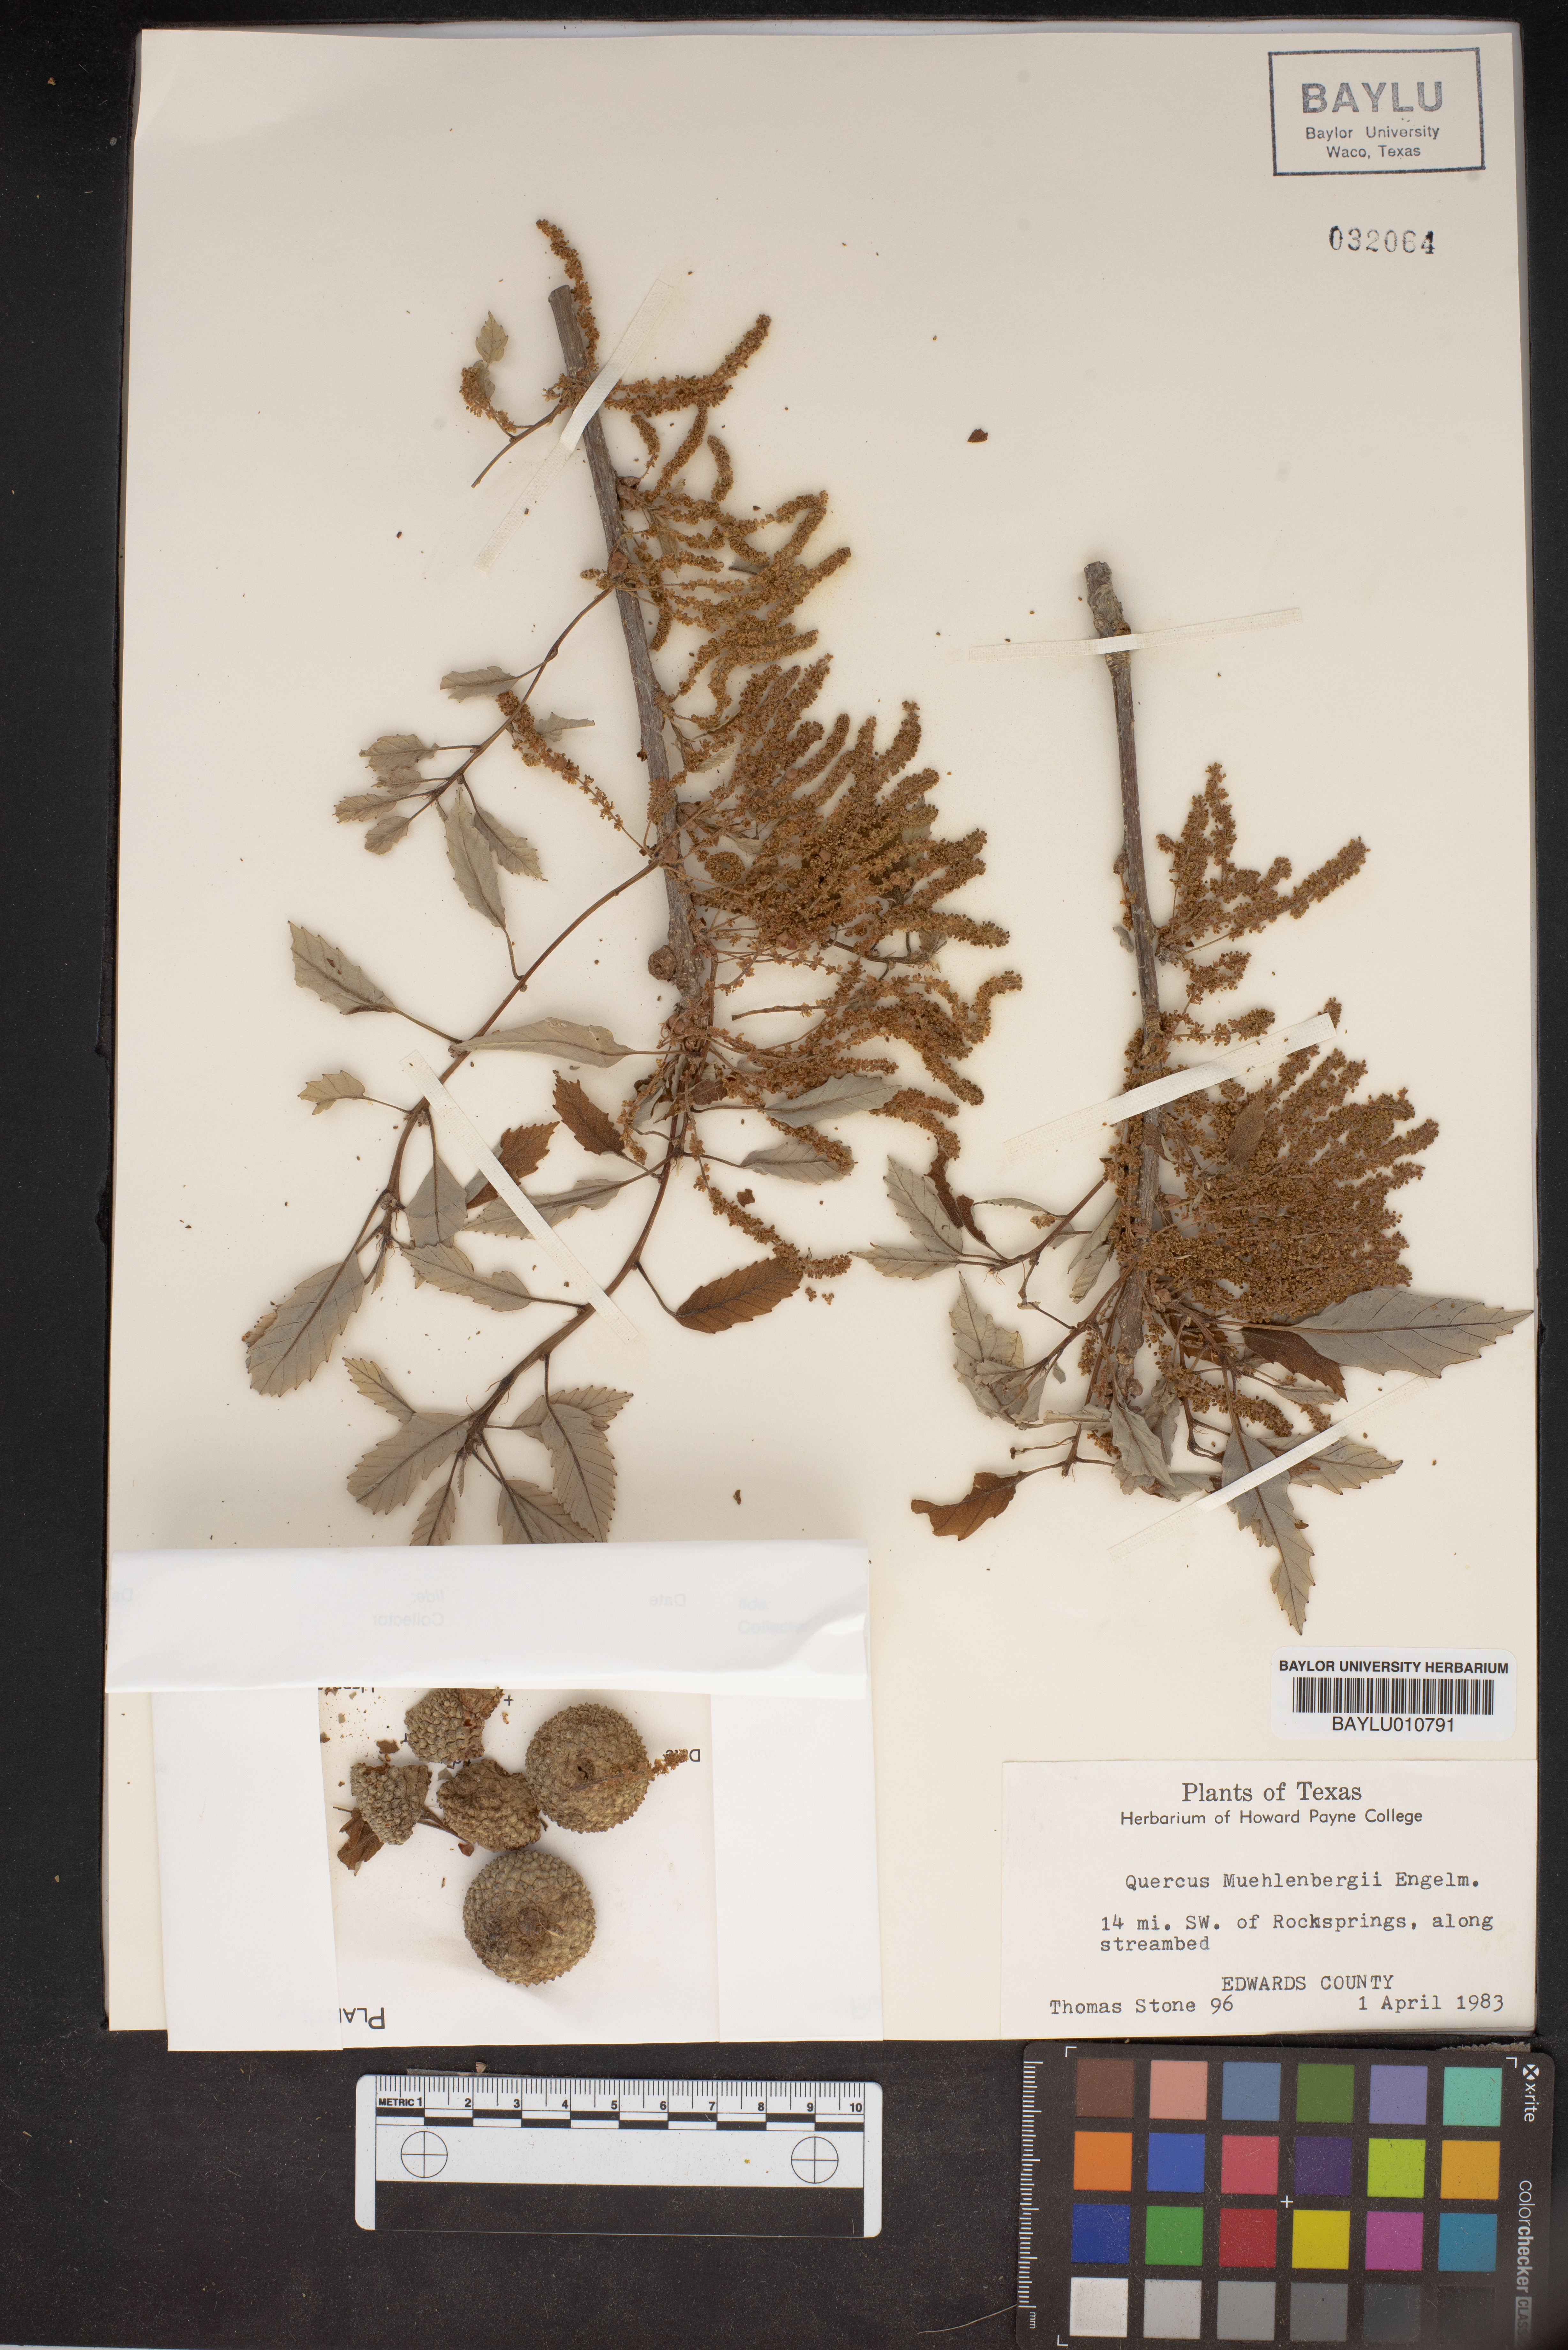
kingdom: Plantae
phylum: Tracheophyta
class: Magnoliopsida
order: Fagales
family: Fagaceae
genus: Quercus
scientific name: Quercus muehlenbergii
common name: Chinkapin oak
